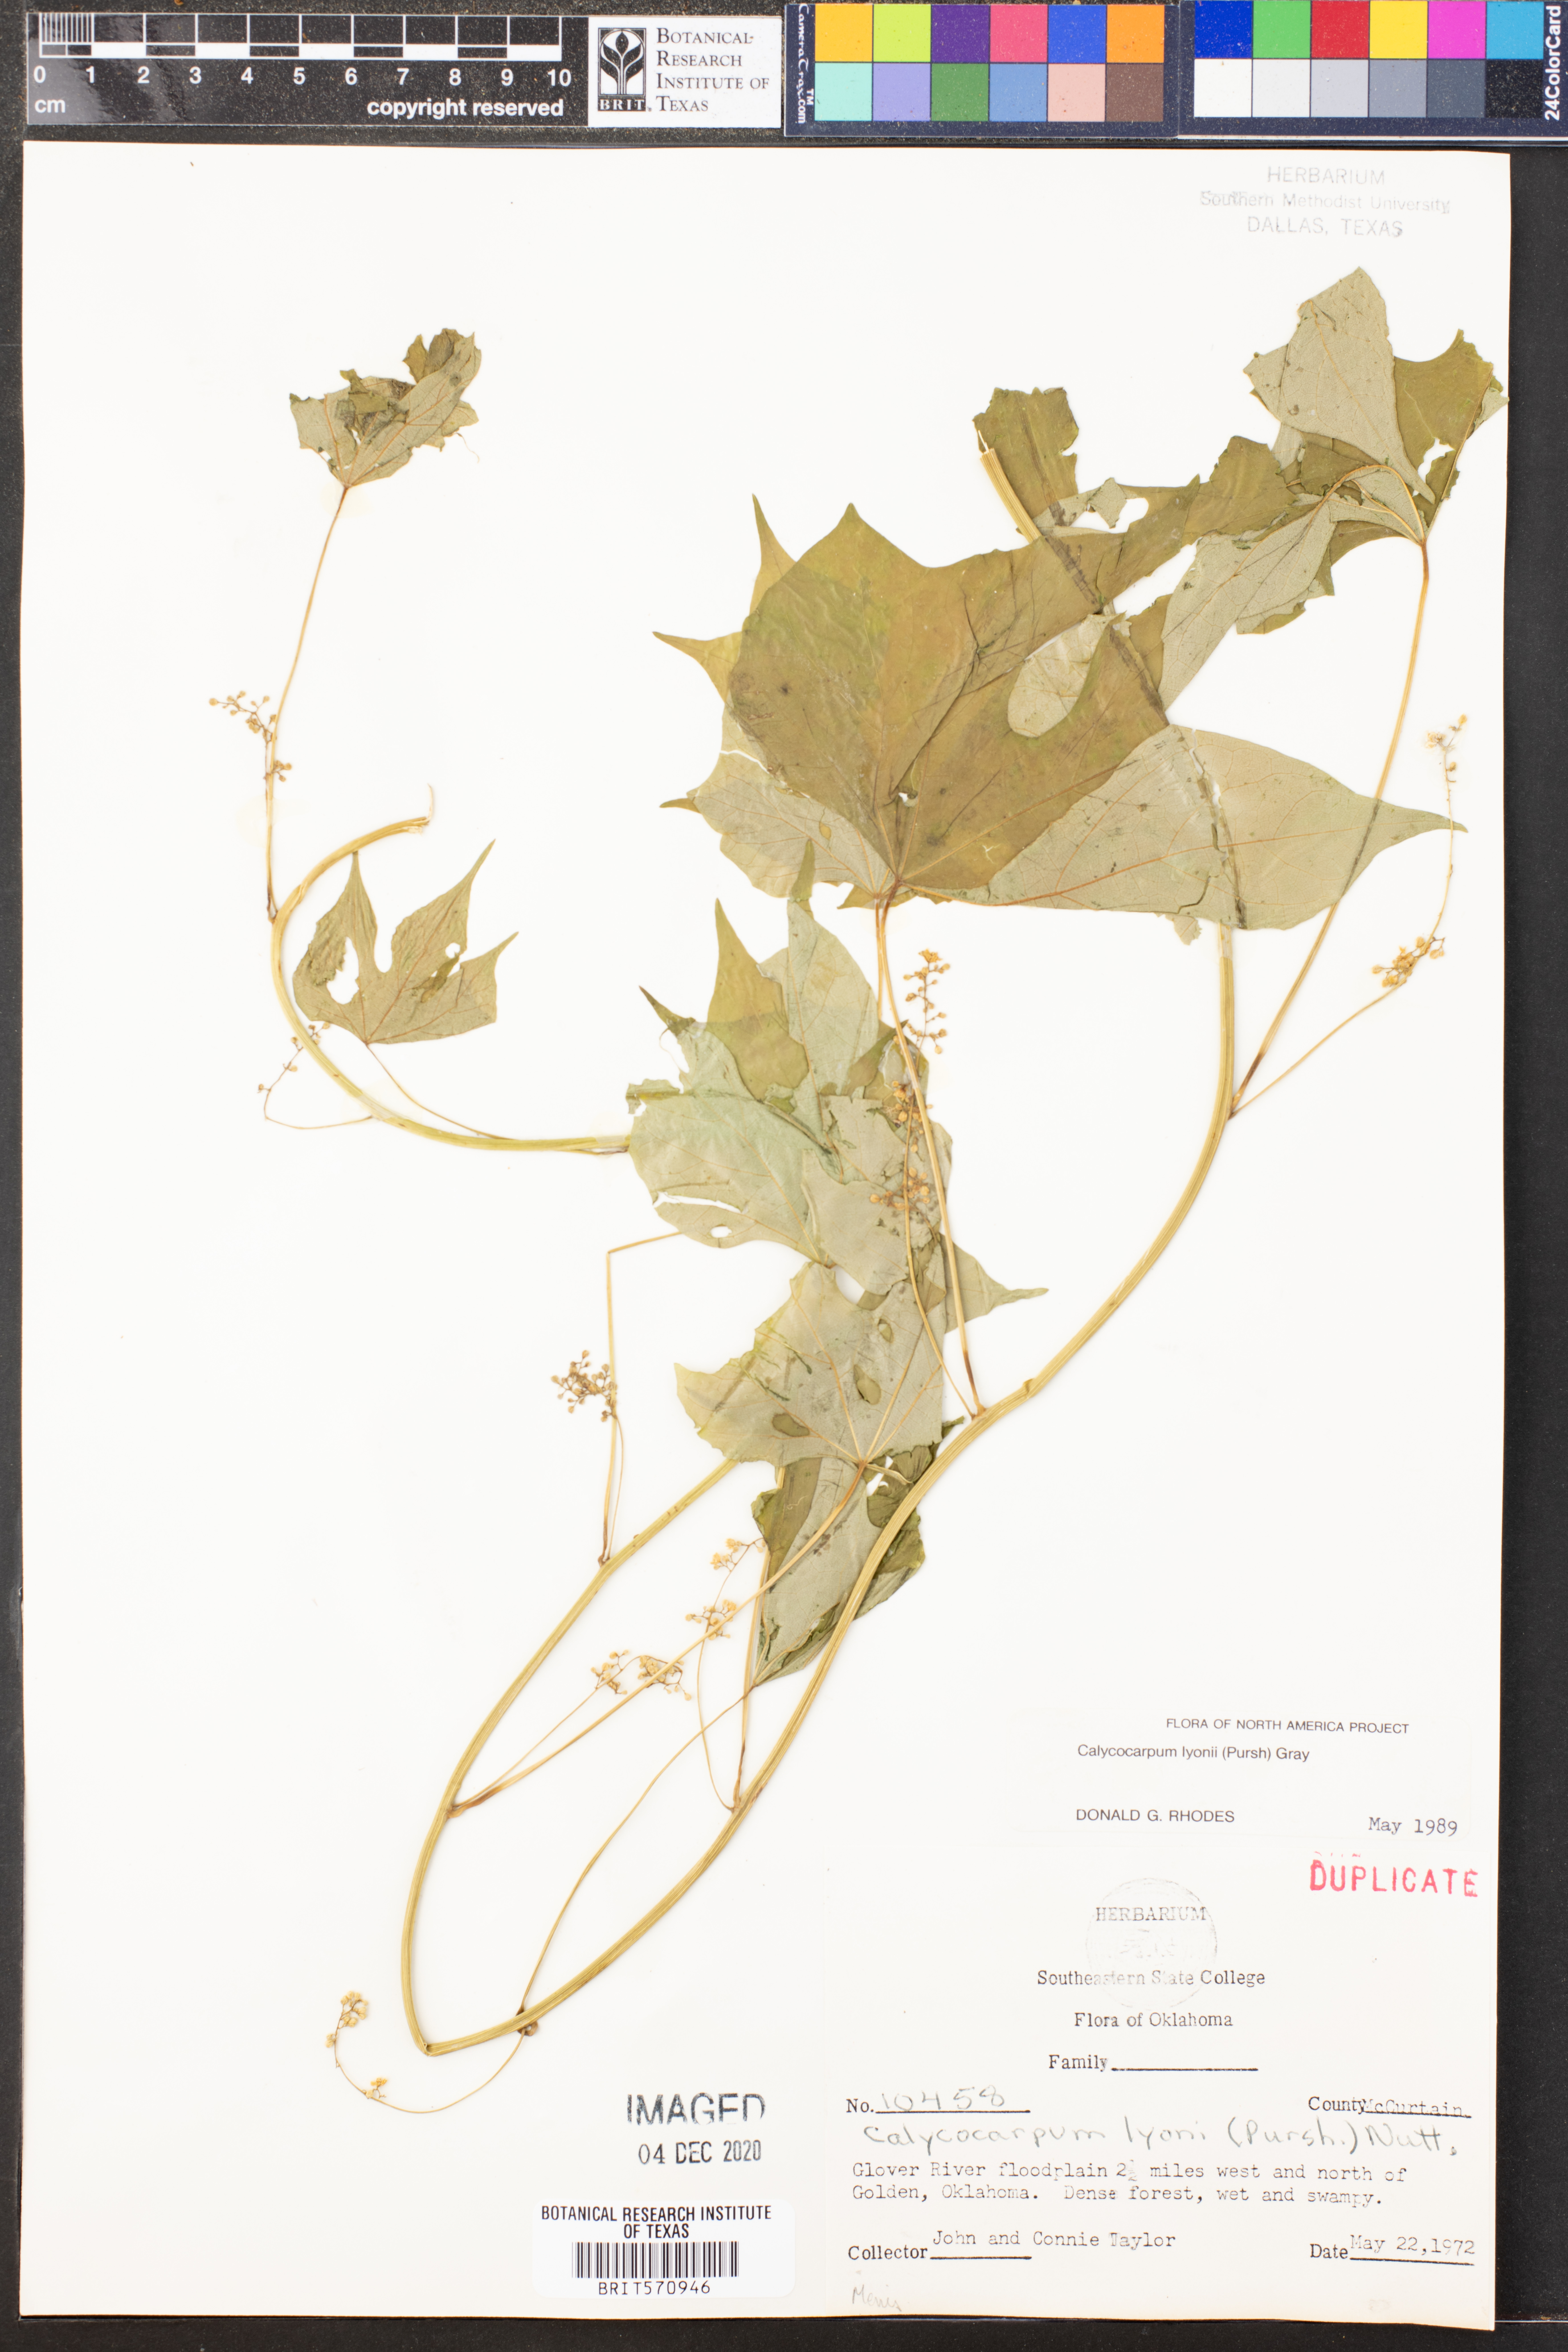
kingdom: Plantae
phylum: Tracheophyta
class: Magnoliopsida
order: Ranunculales
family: Menispermaceae
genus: Calycocarpum
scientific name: Calycocarpum lyonii
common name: Cupseed
